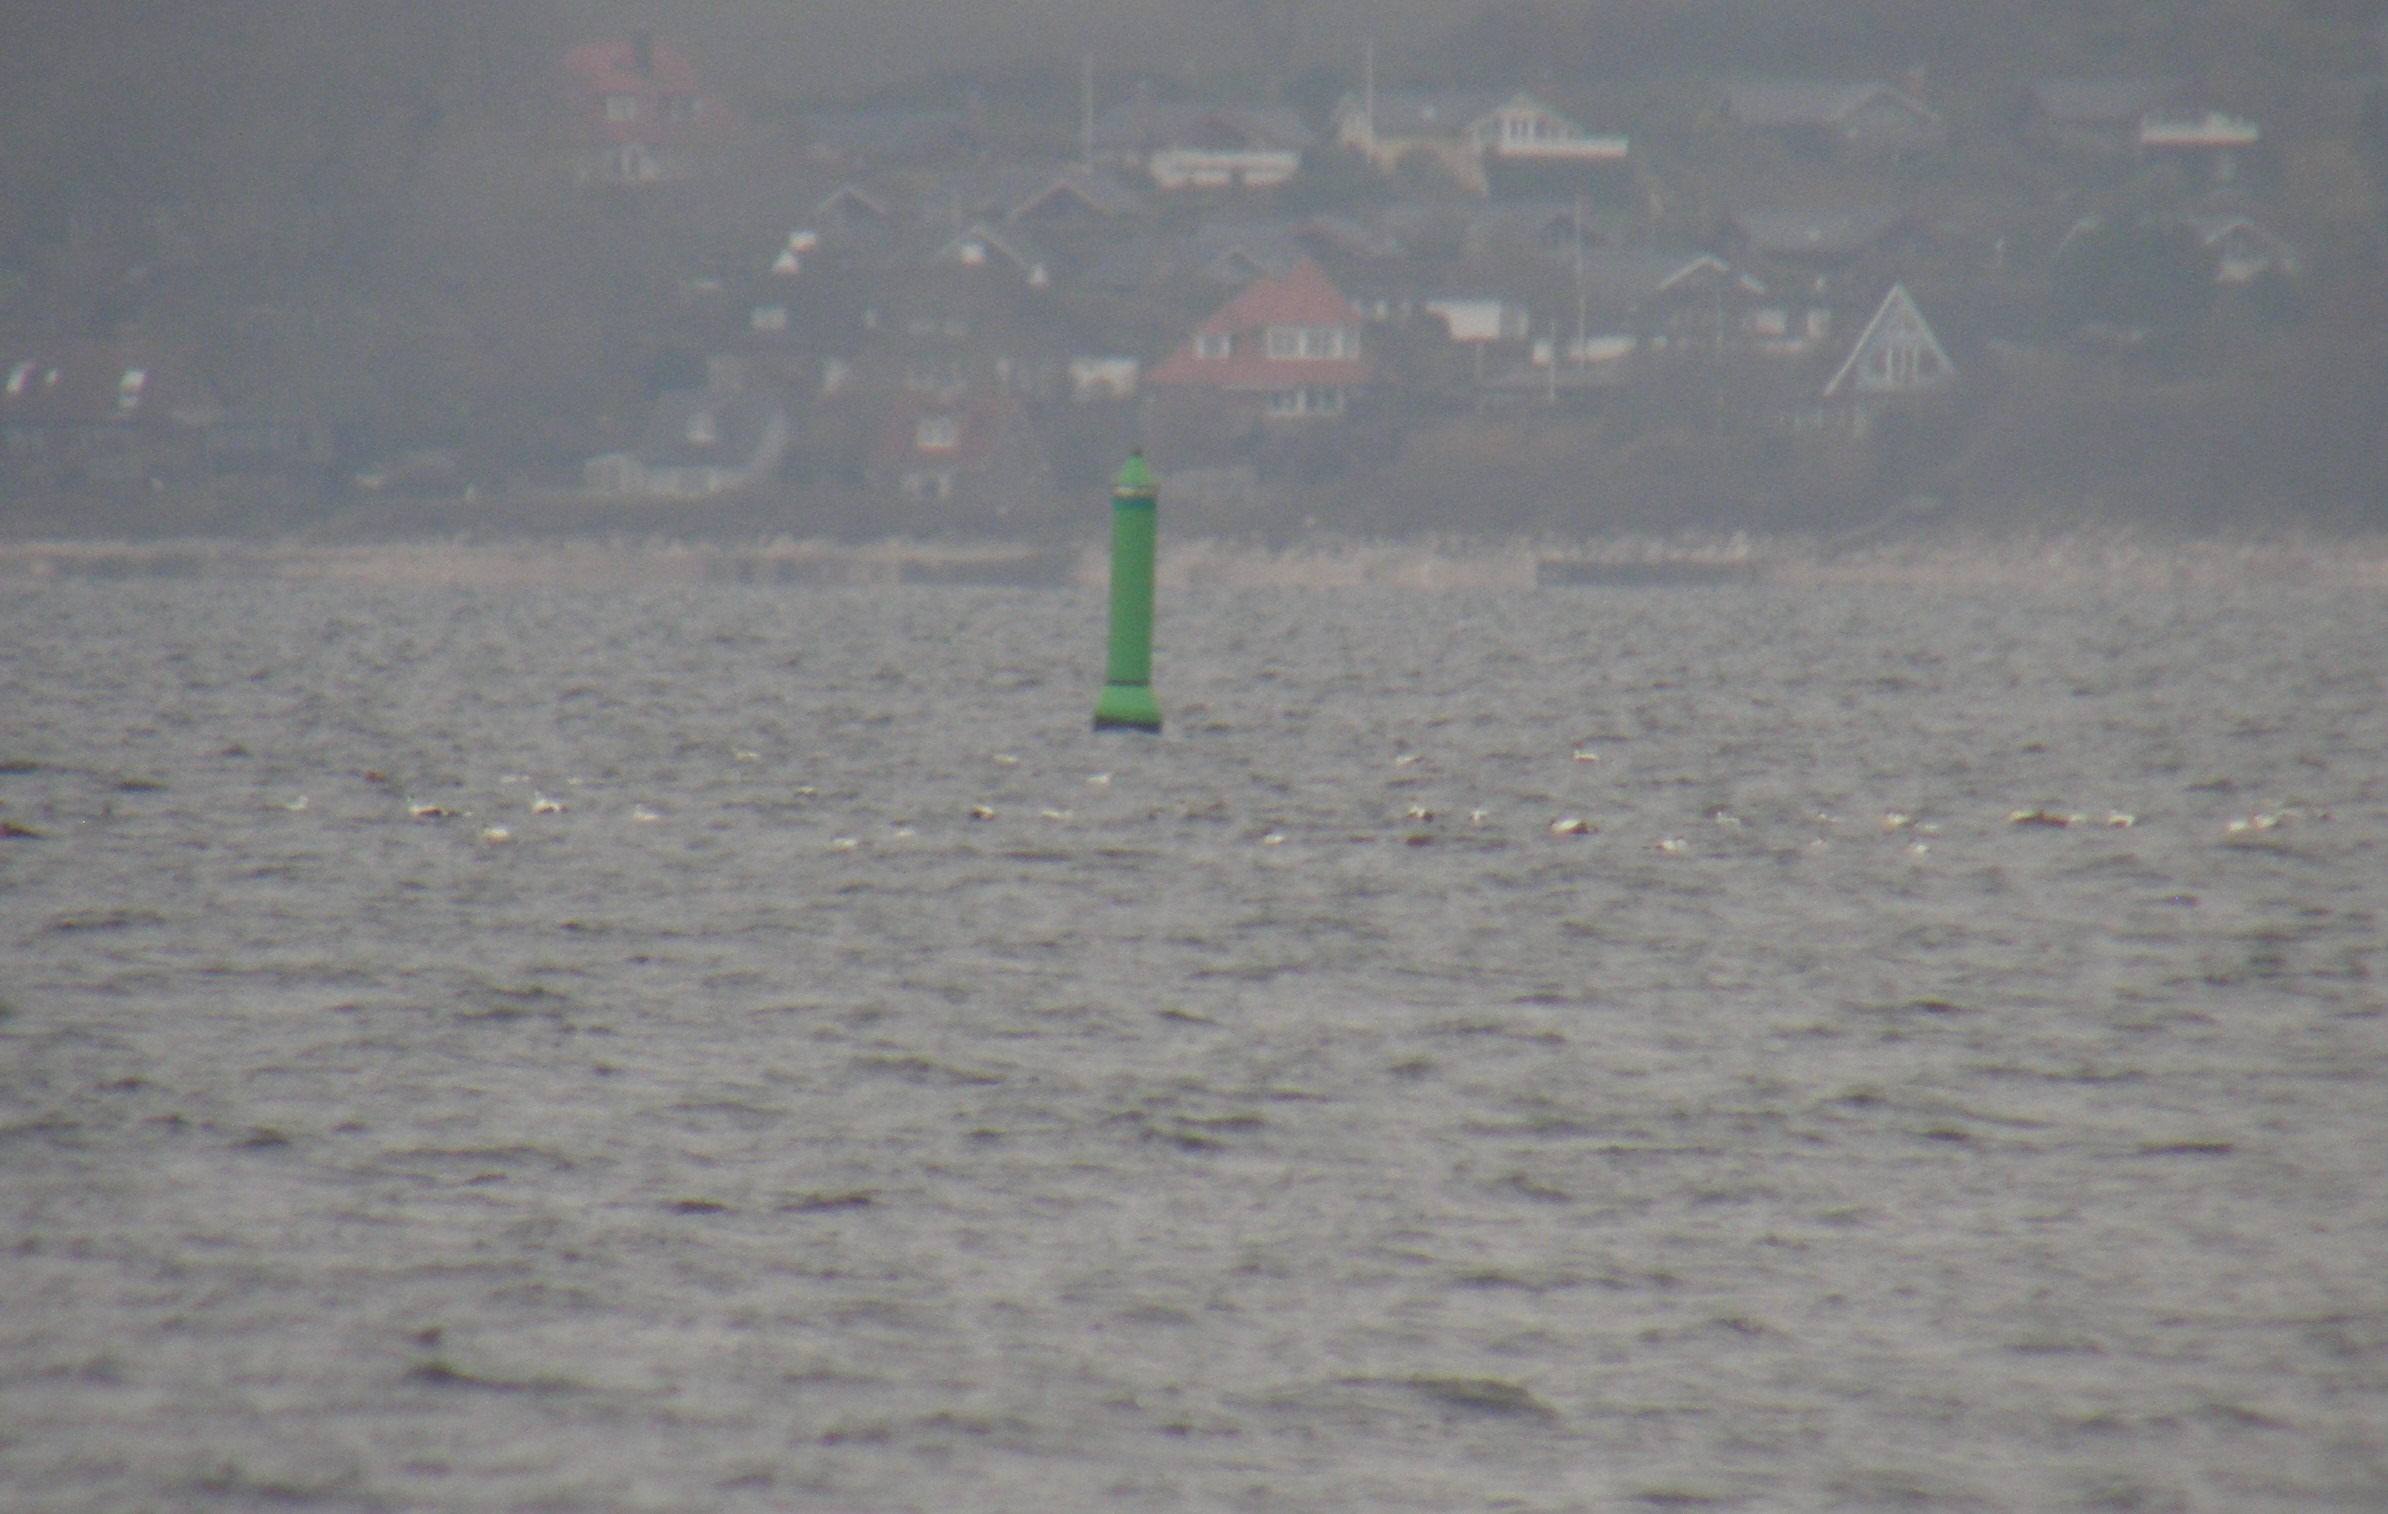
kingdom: Animalia
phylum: Chordata
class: Aves
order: Anseriformes
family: Anatidae
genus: Somateria
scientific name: Somateria mollissima
